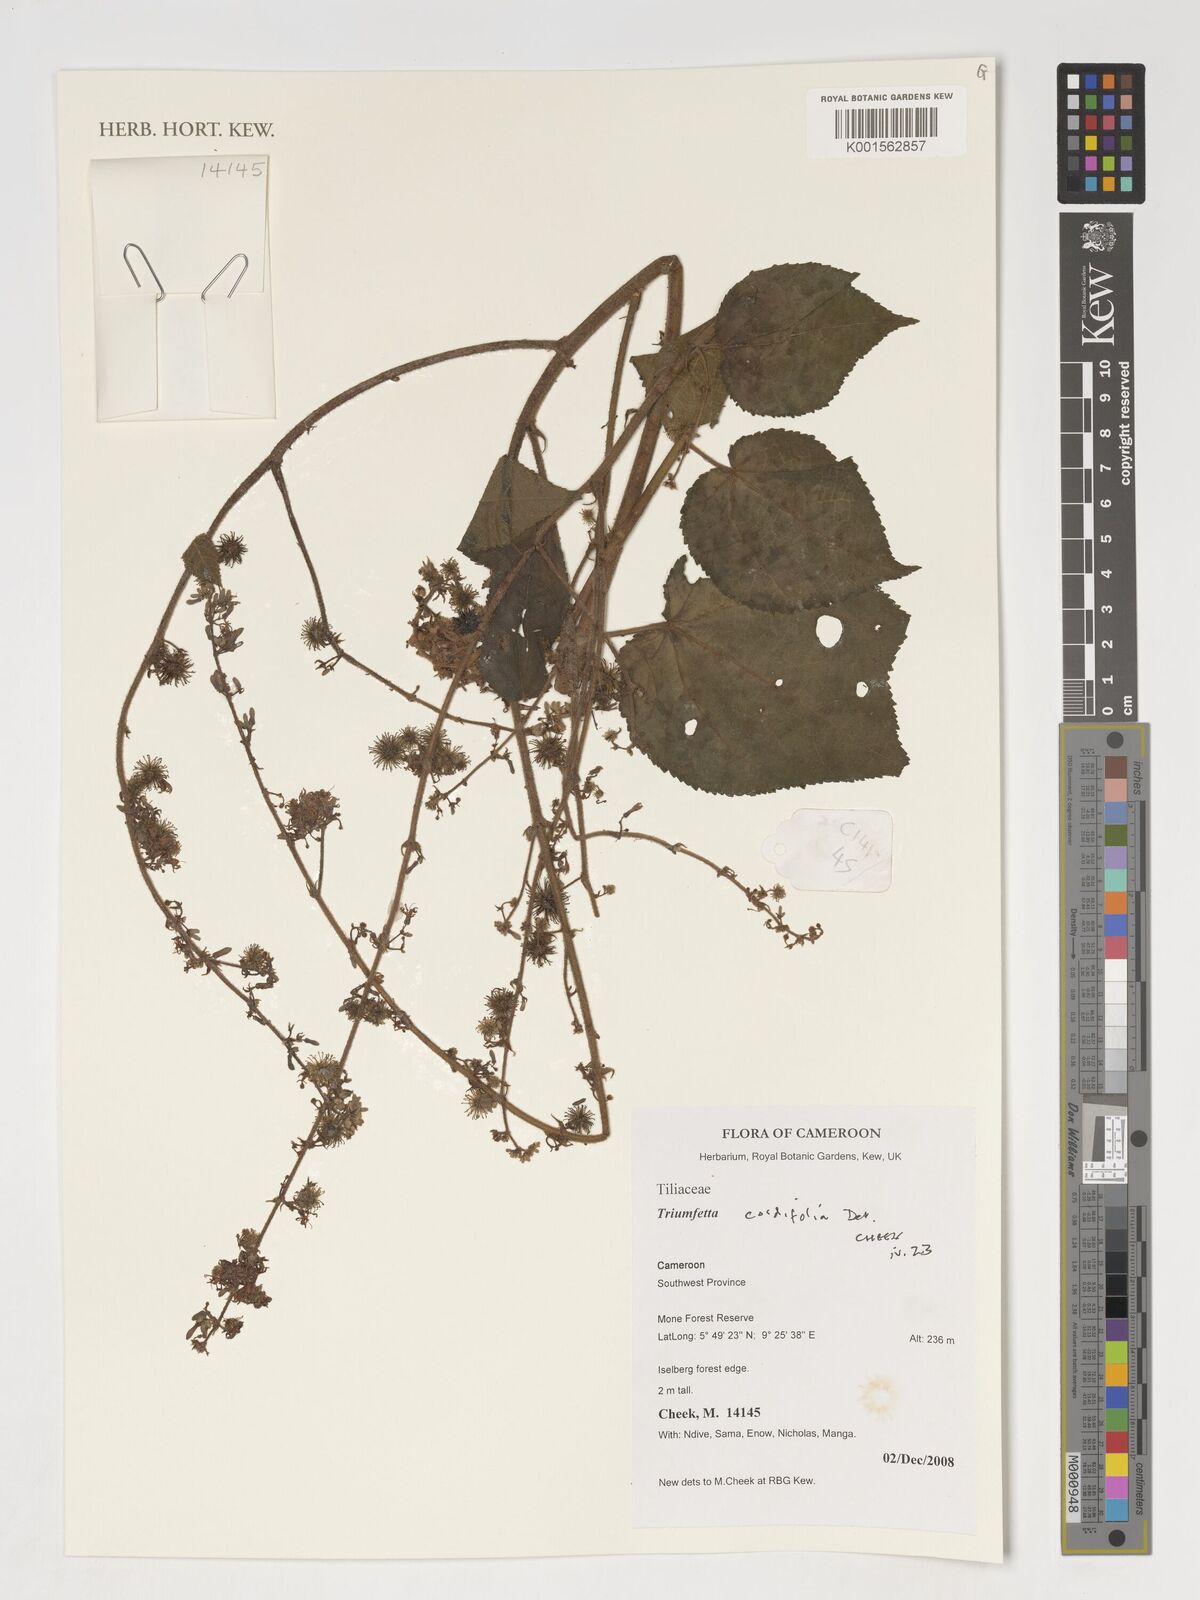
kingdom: Plantae
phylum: Tracheophyta
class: Magnoliopsida
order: Malvales
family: Malvaceae
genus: Triumfetta
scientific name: Triumfetta cordifolia
